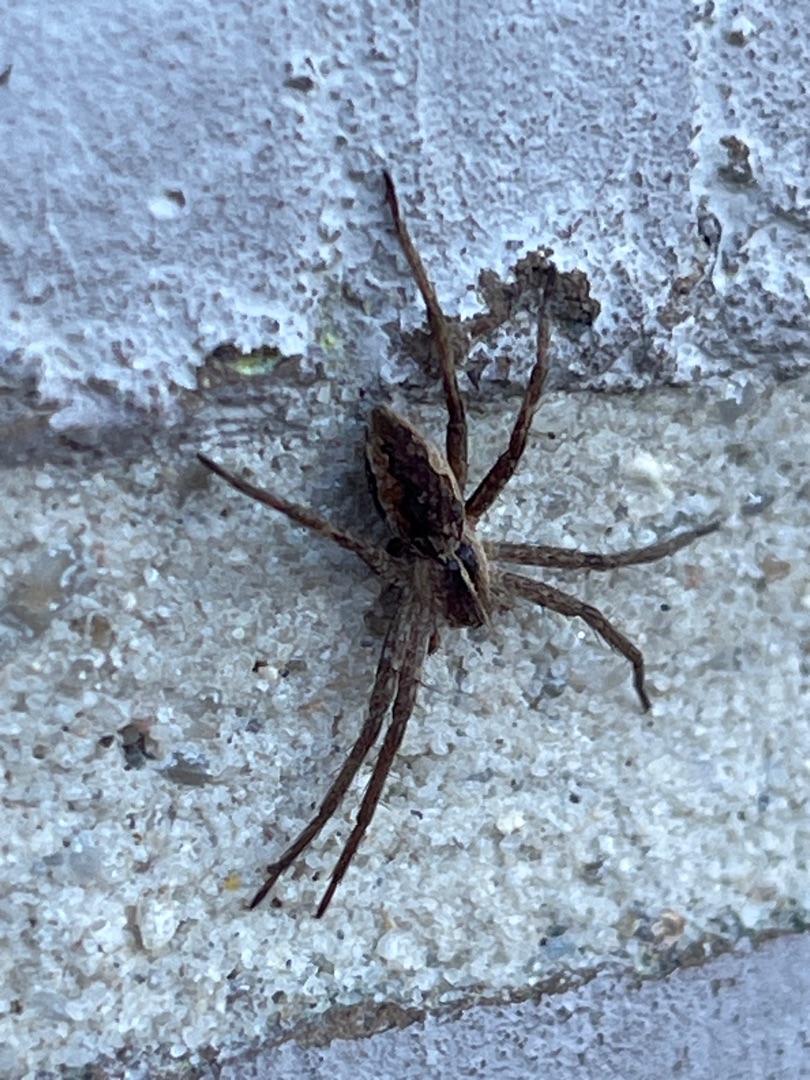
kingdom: Animalia
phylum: Arthropoda
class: Arachnida
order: Araneae
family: Pisauridae
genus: Pisaura
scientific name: Pisaura mirabilis
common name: Almindelig rovedderkop
